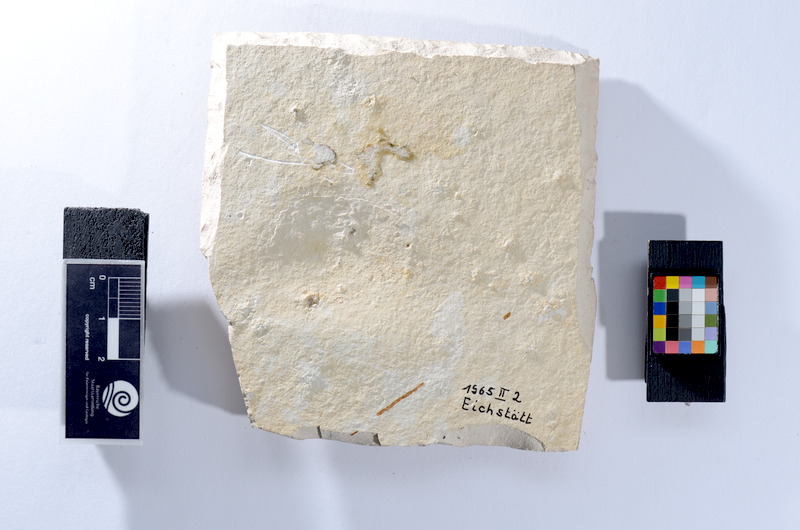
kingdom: Animalia
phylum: Chordata
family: Allothrissopidae
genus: Allothrissops
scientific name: Allothrissops
